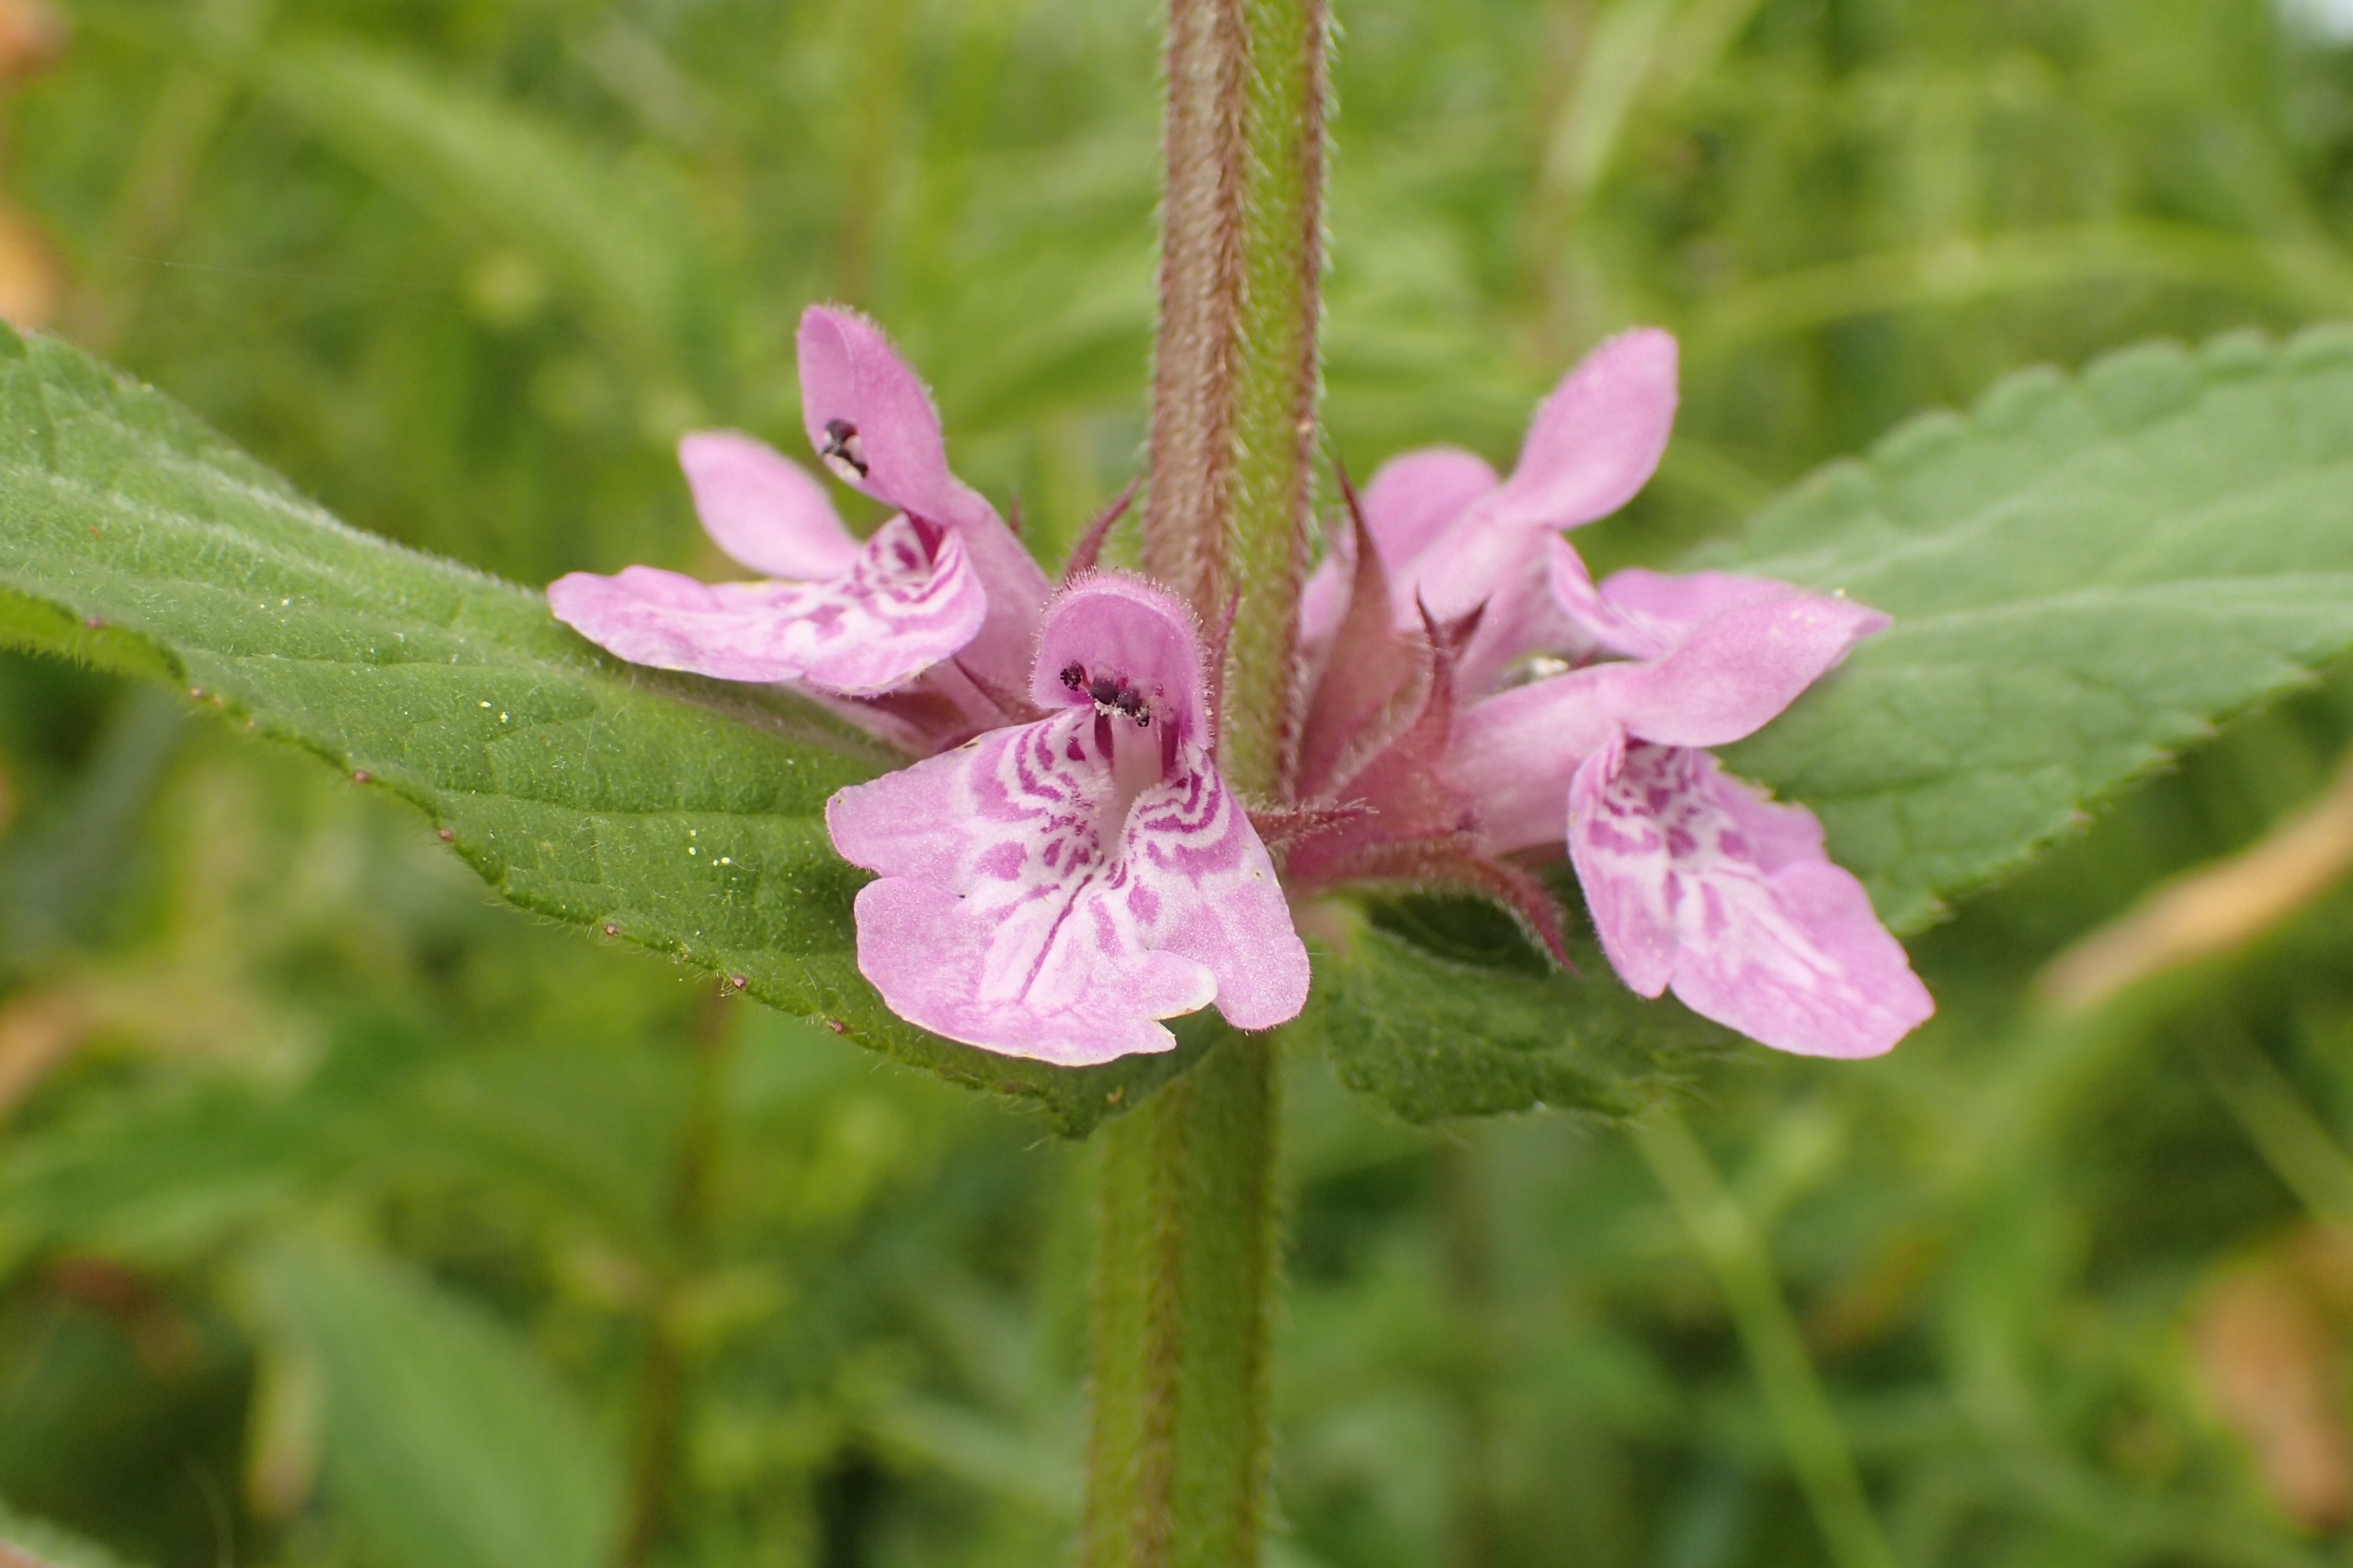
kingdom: Plantae
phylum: Tracheophyta
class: Magnoliopsida
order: Lamiales
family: Lamiaceae
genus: Stachys
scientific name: Stachys palustris
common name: Kær-galtetand
